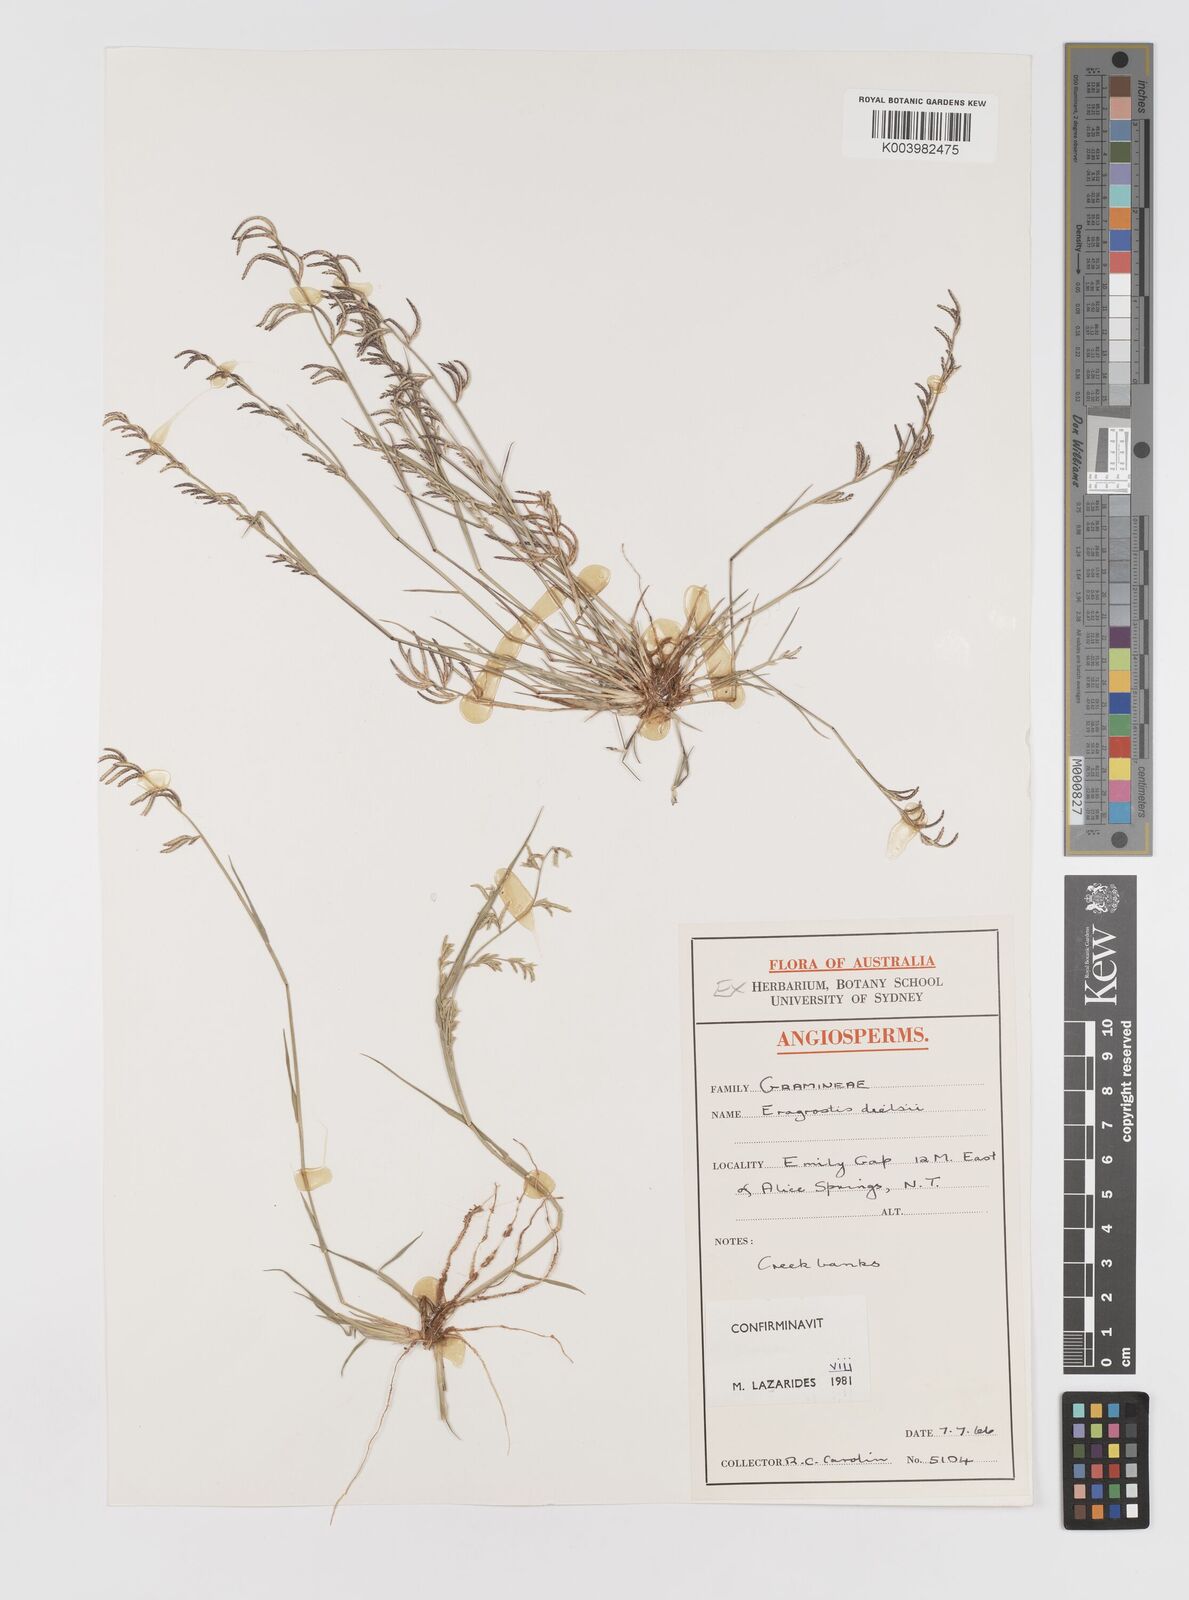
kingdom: Plantae
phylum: Tracheophyta
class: Liliopsida
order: Poales
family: Poaceae
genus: Eragrostis
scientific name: Eragrostis dielsii
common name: Lovegrass
